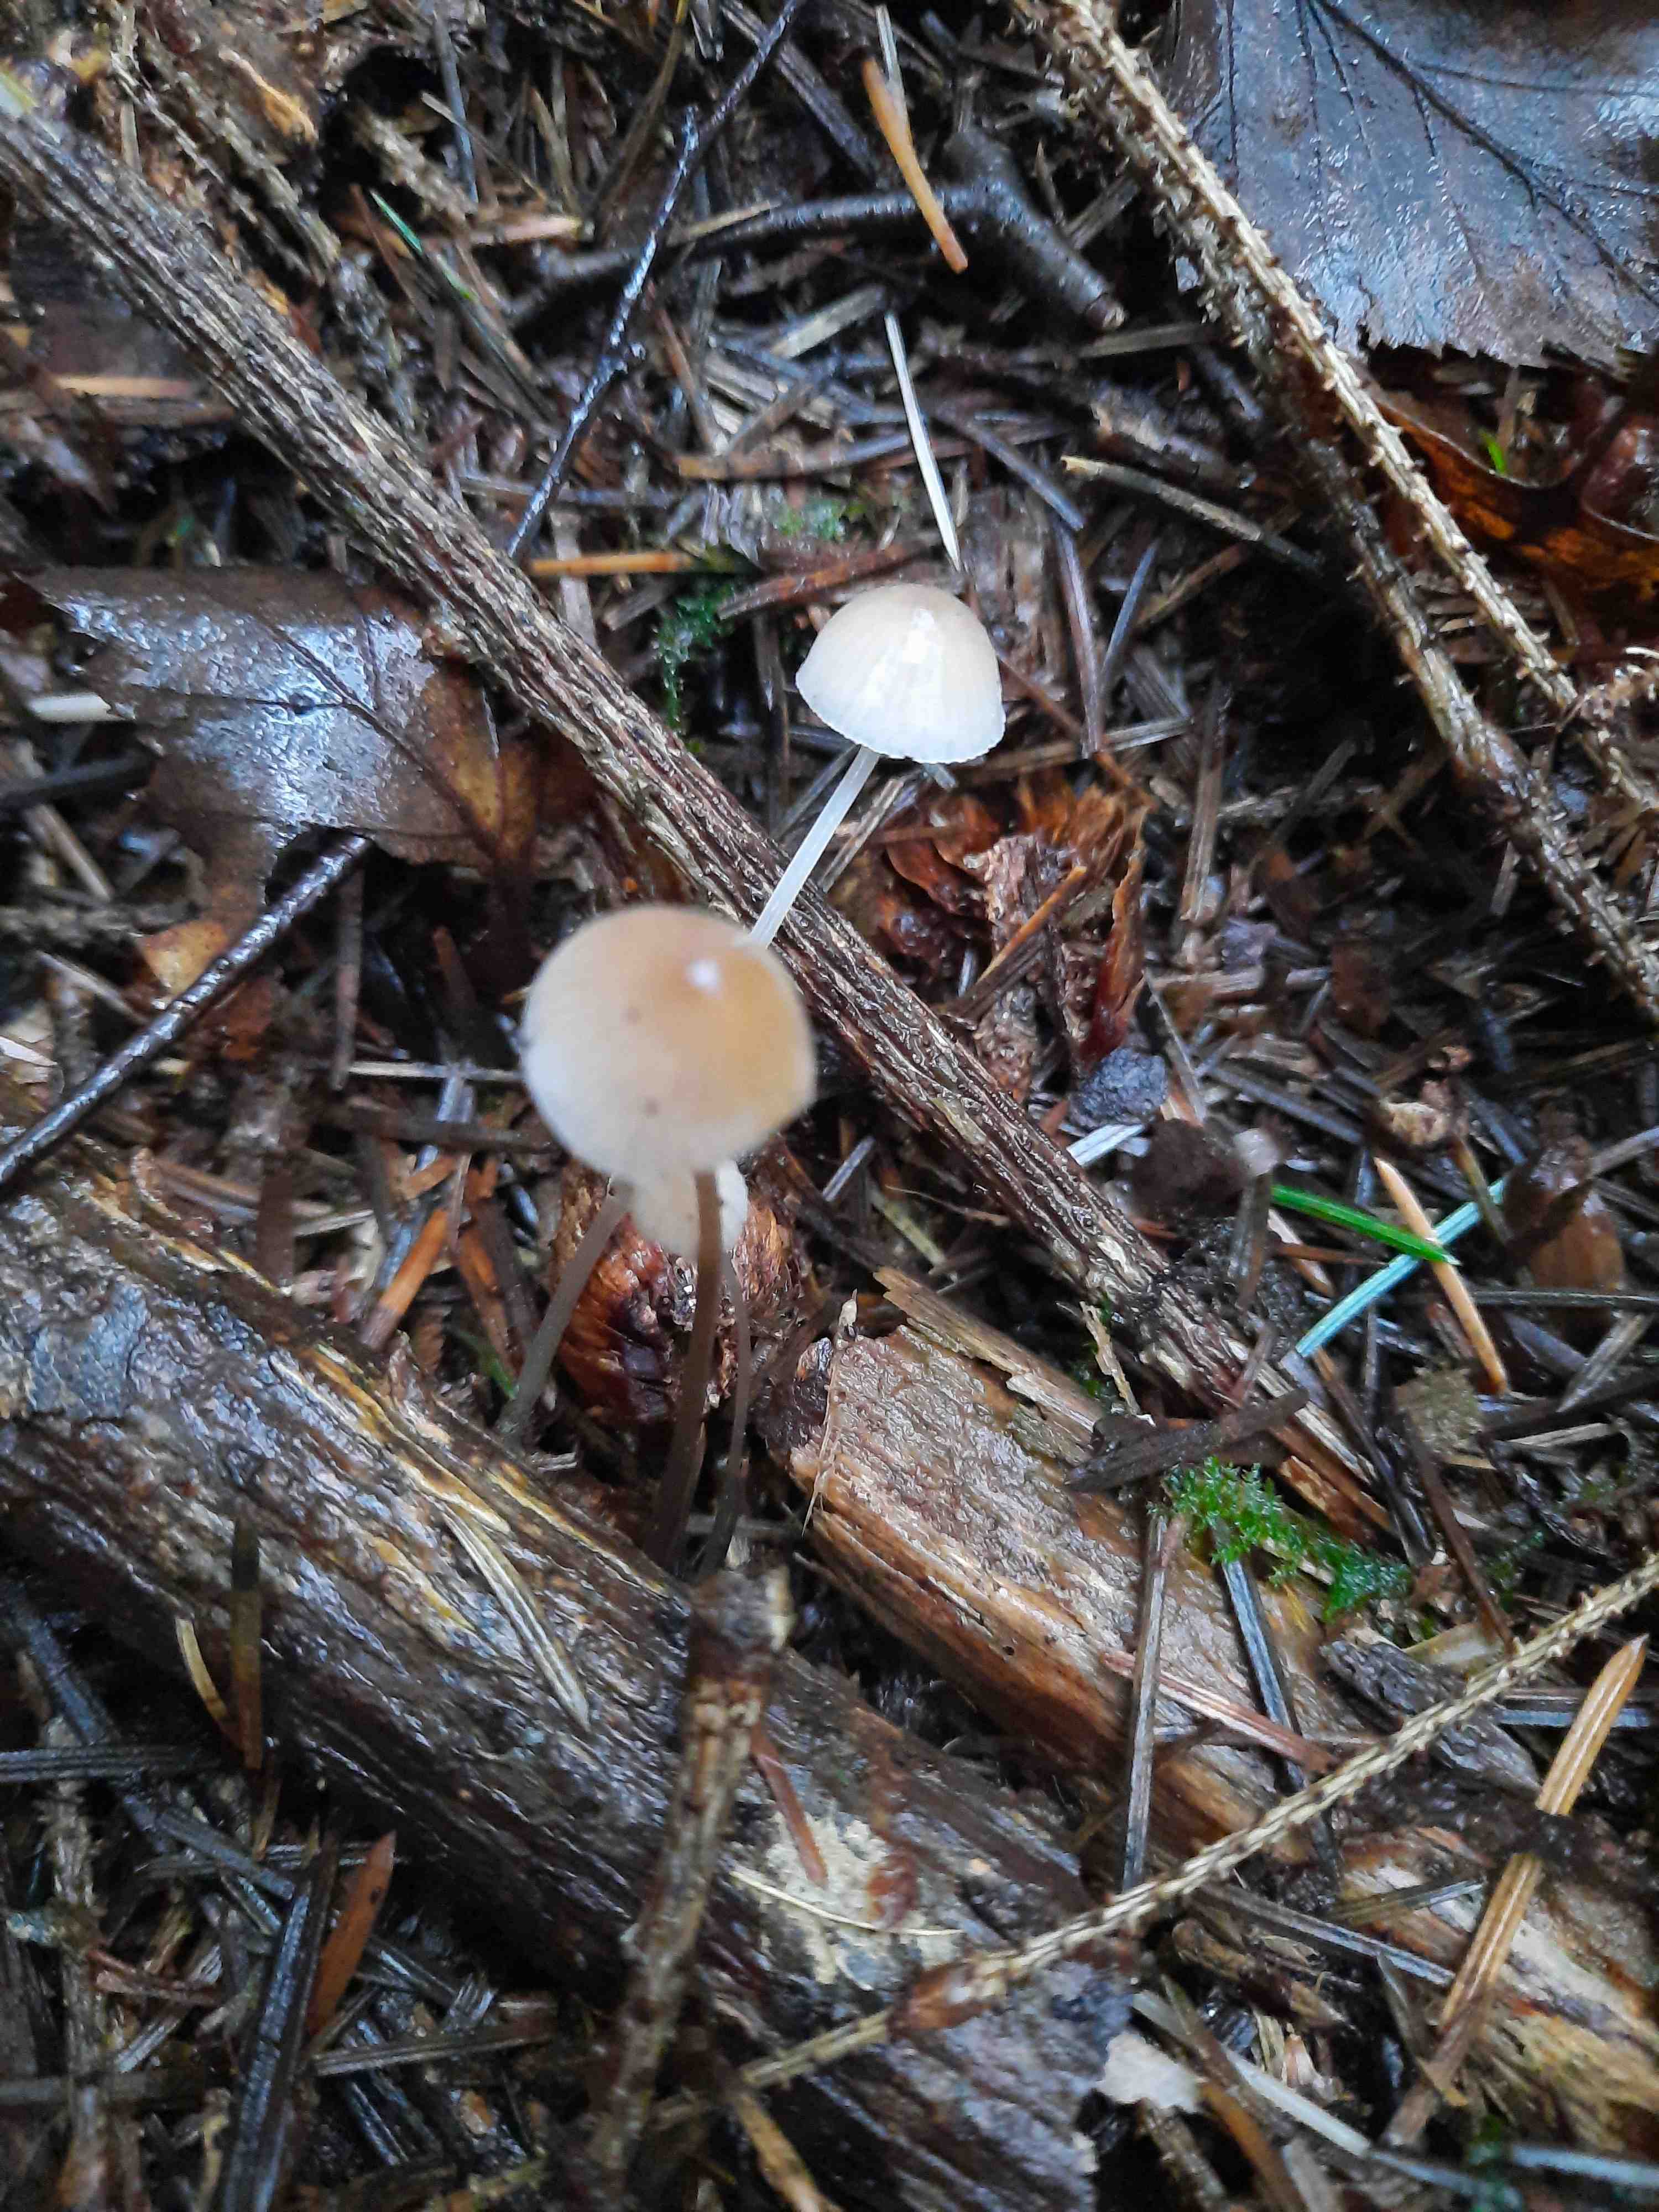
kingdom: Fungi
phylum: Basidiomycota
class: Agaricomycetes
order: Agaricales
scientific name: Agaricales
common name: champignonordenen
